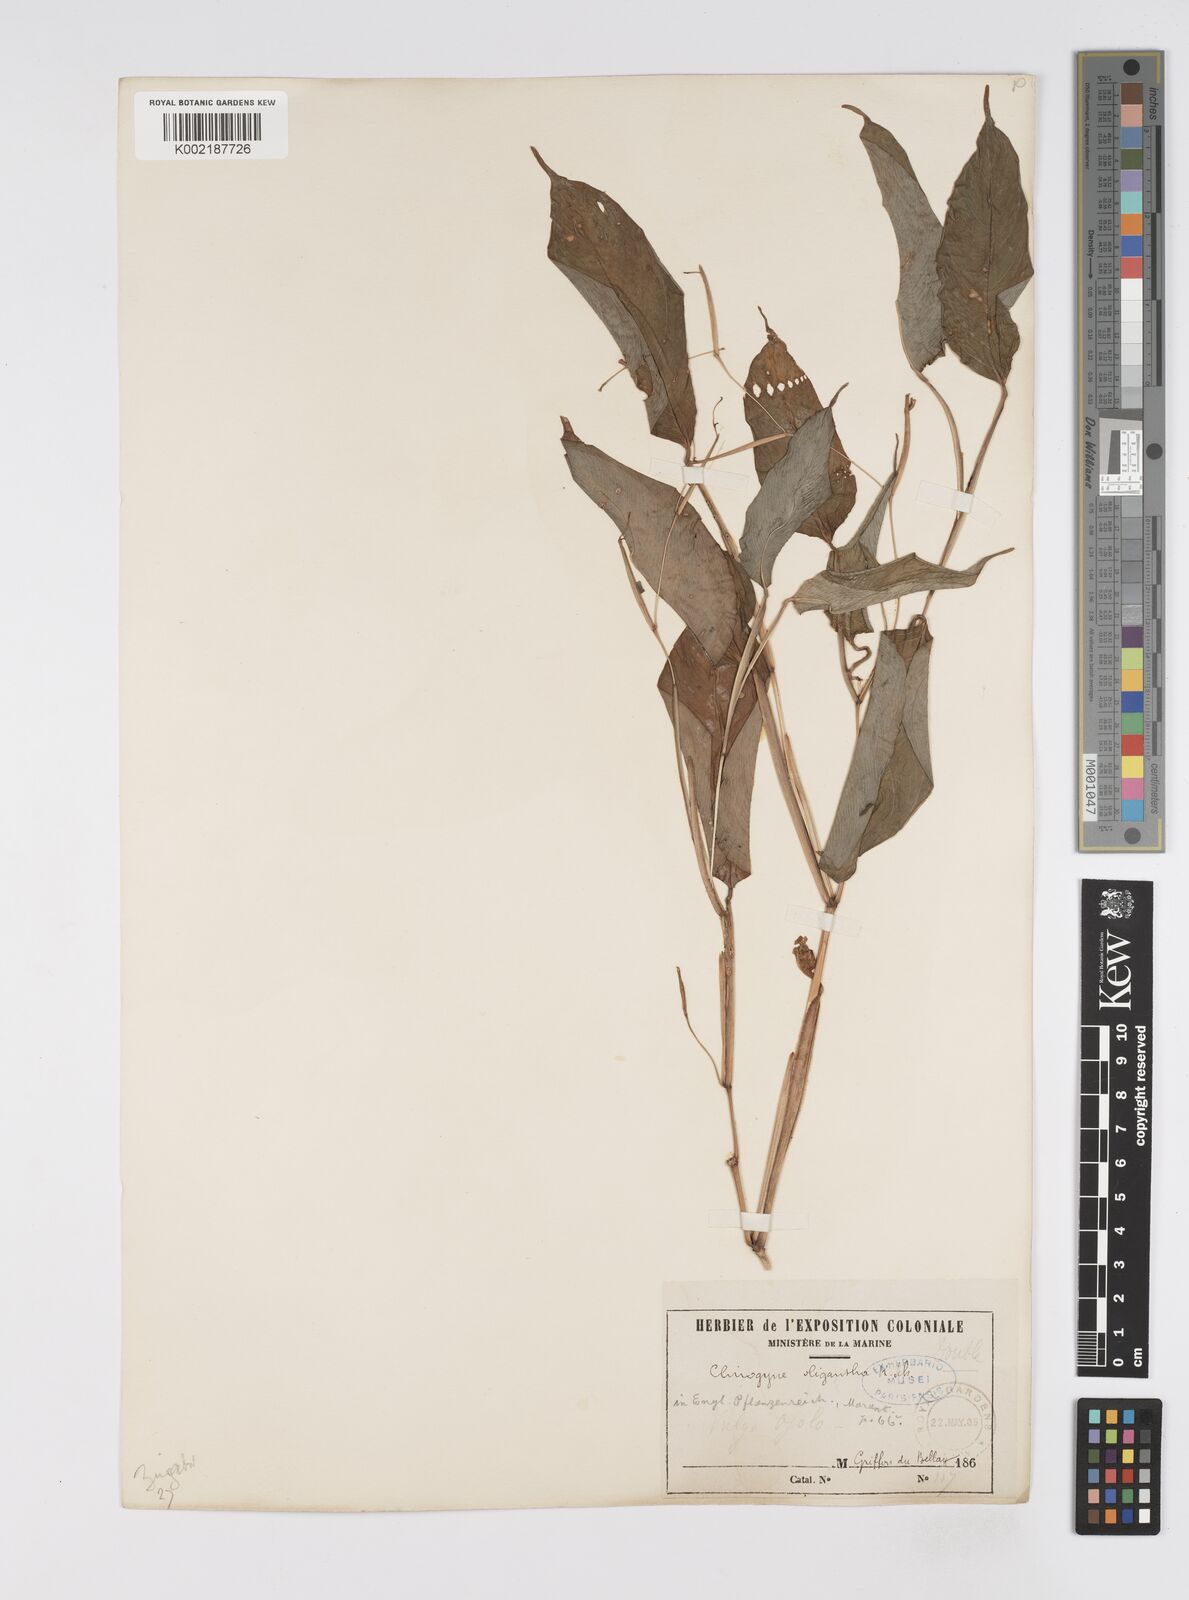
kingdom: Plantae
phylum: Tracheophyta
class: Liliopsida
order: Zingiberales
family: Marantaceae
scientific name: Marantaceae
